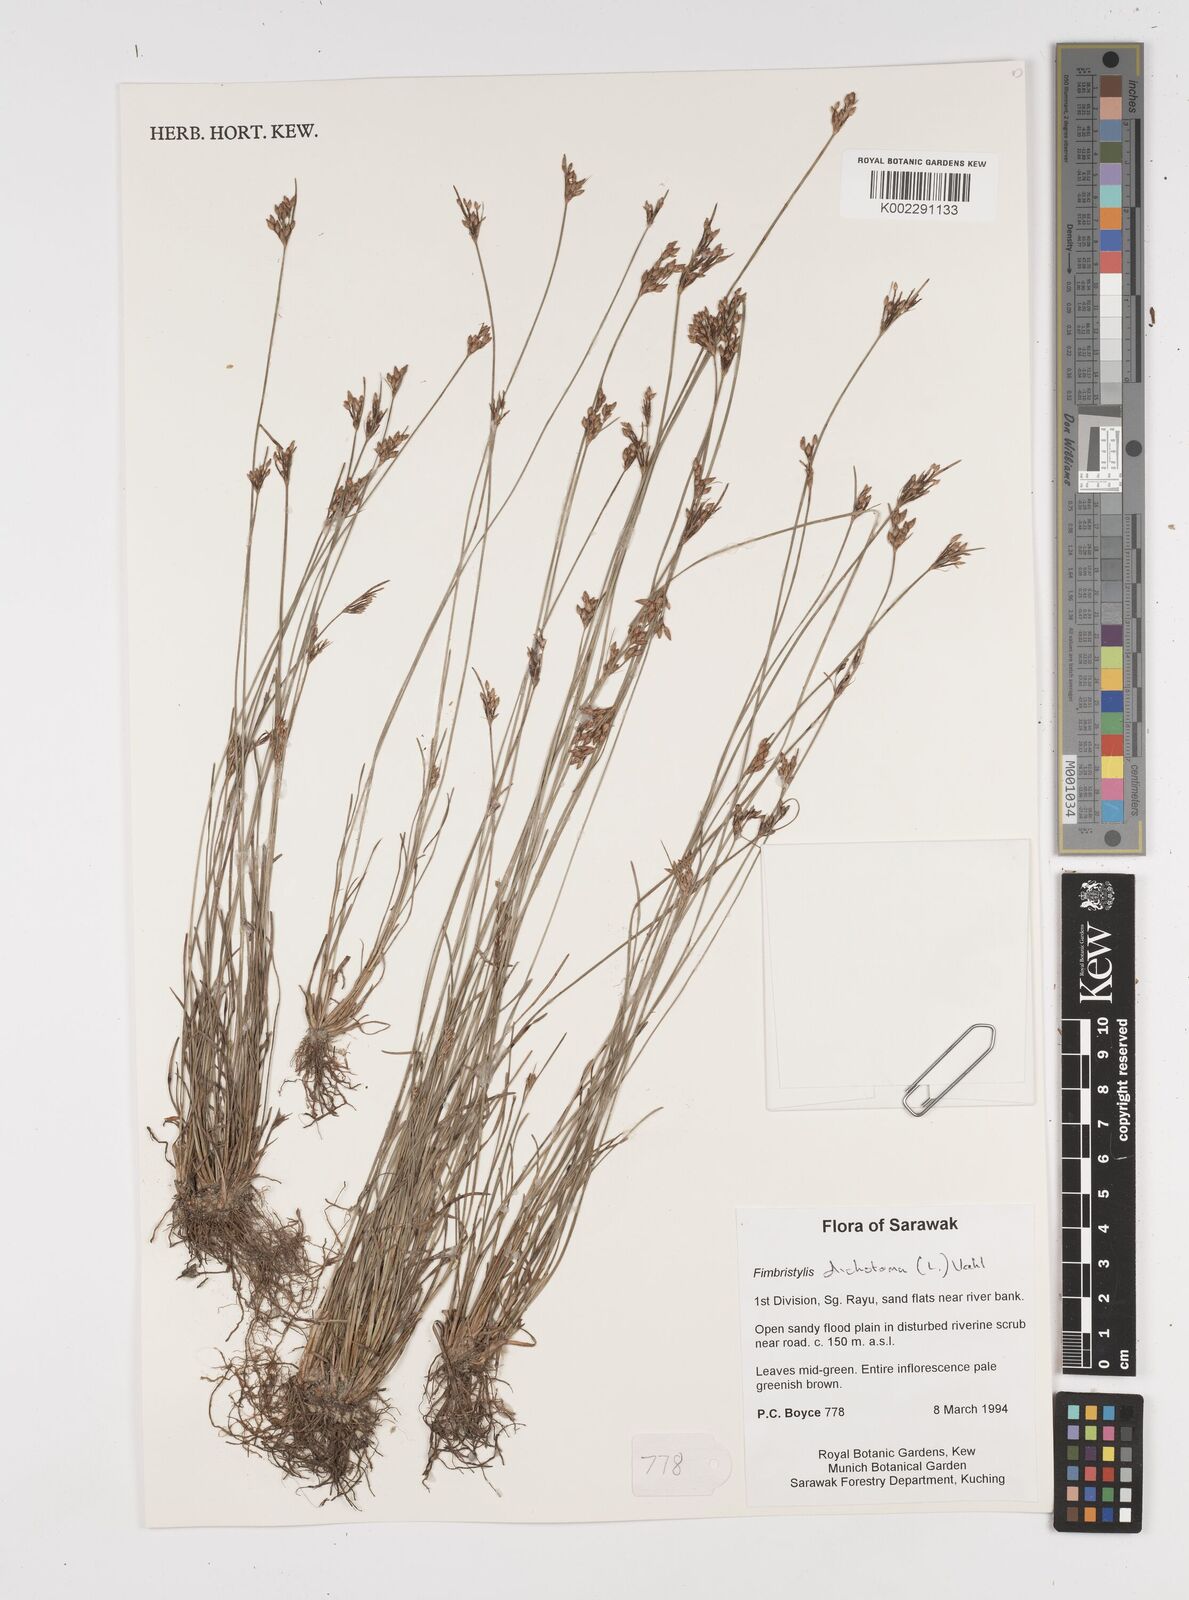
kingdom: Plantae
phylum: Tracheophyta
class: Liliopsida
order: Poales
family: Cyperaceae
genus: Fimbristylis
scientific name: Fimbristylis dichotoma
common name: Forked fimbry
